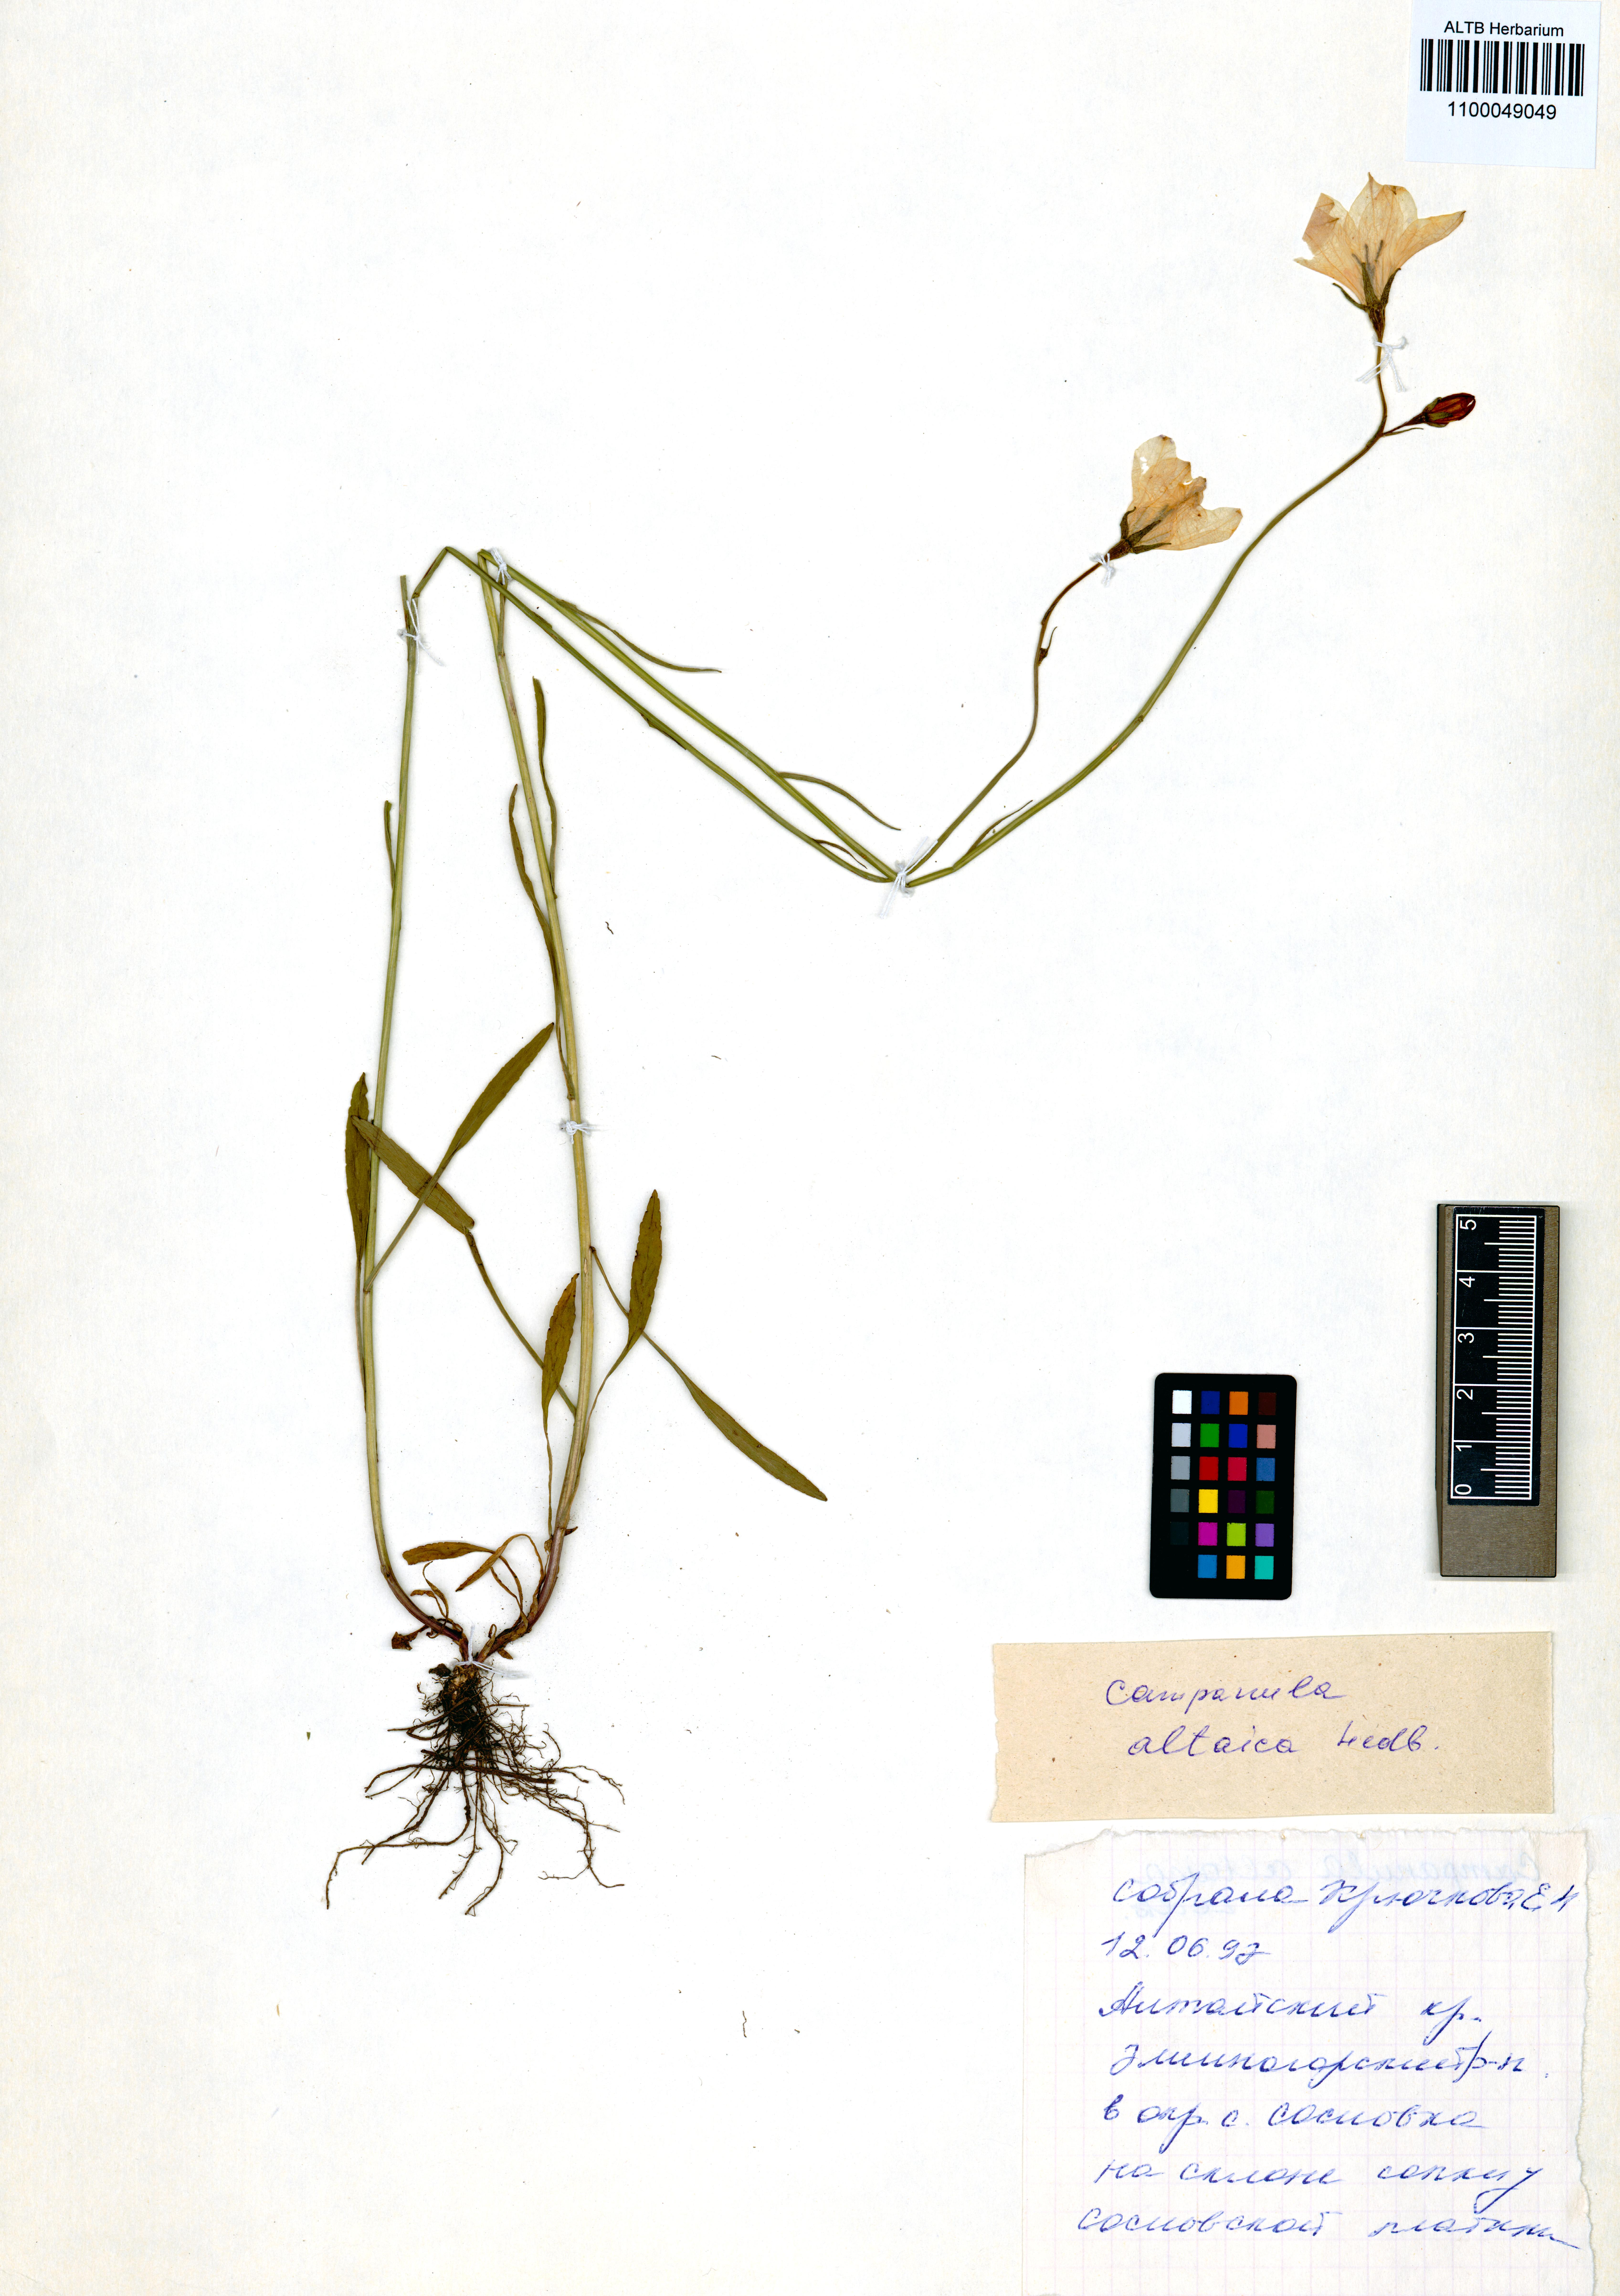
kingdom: Plantae
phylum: Tracheophyta
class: Magnoliopsida
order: Asterales
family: Campanulaceae
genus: Campanula
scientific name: Campanula stevenii
